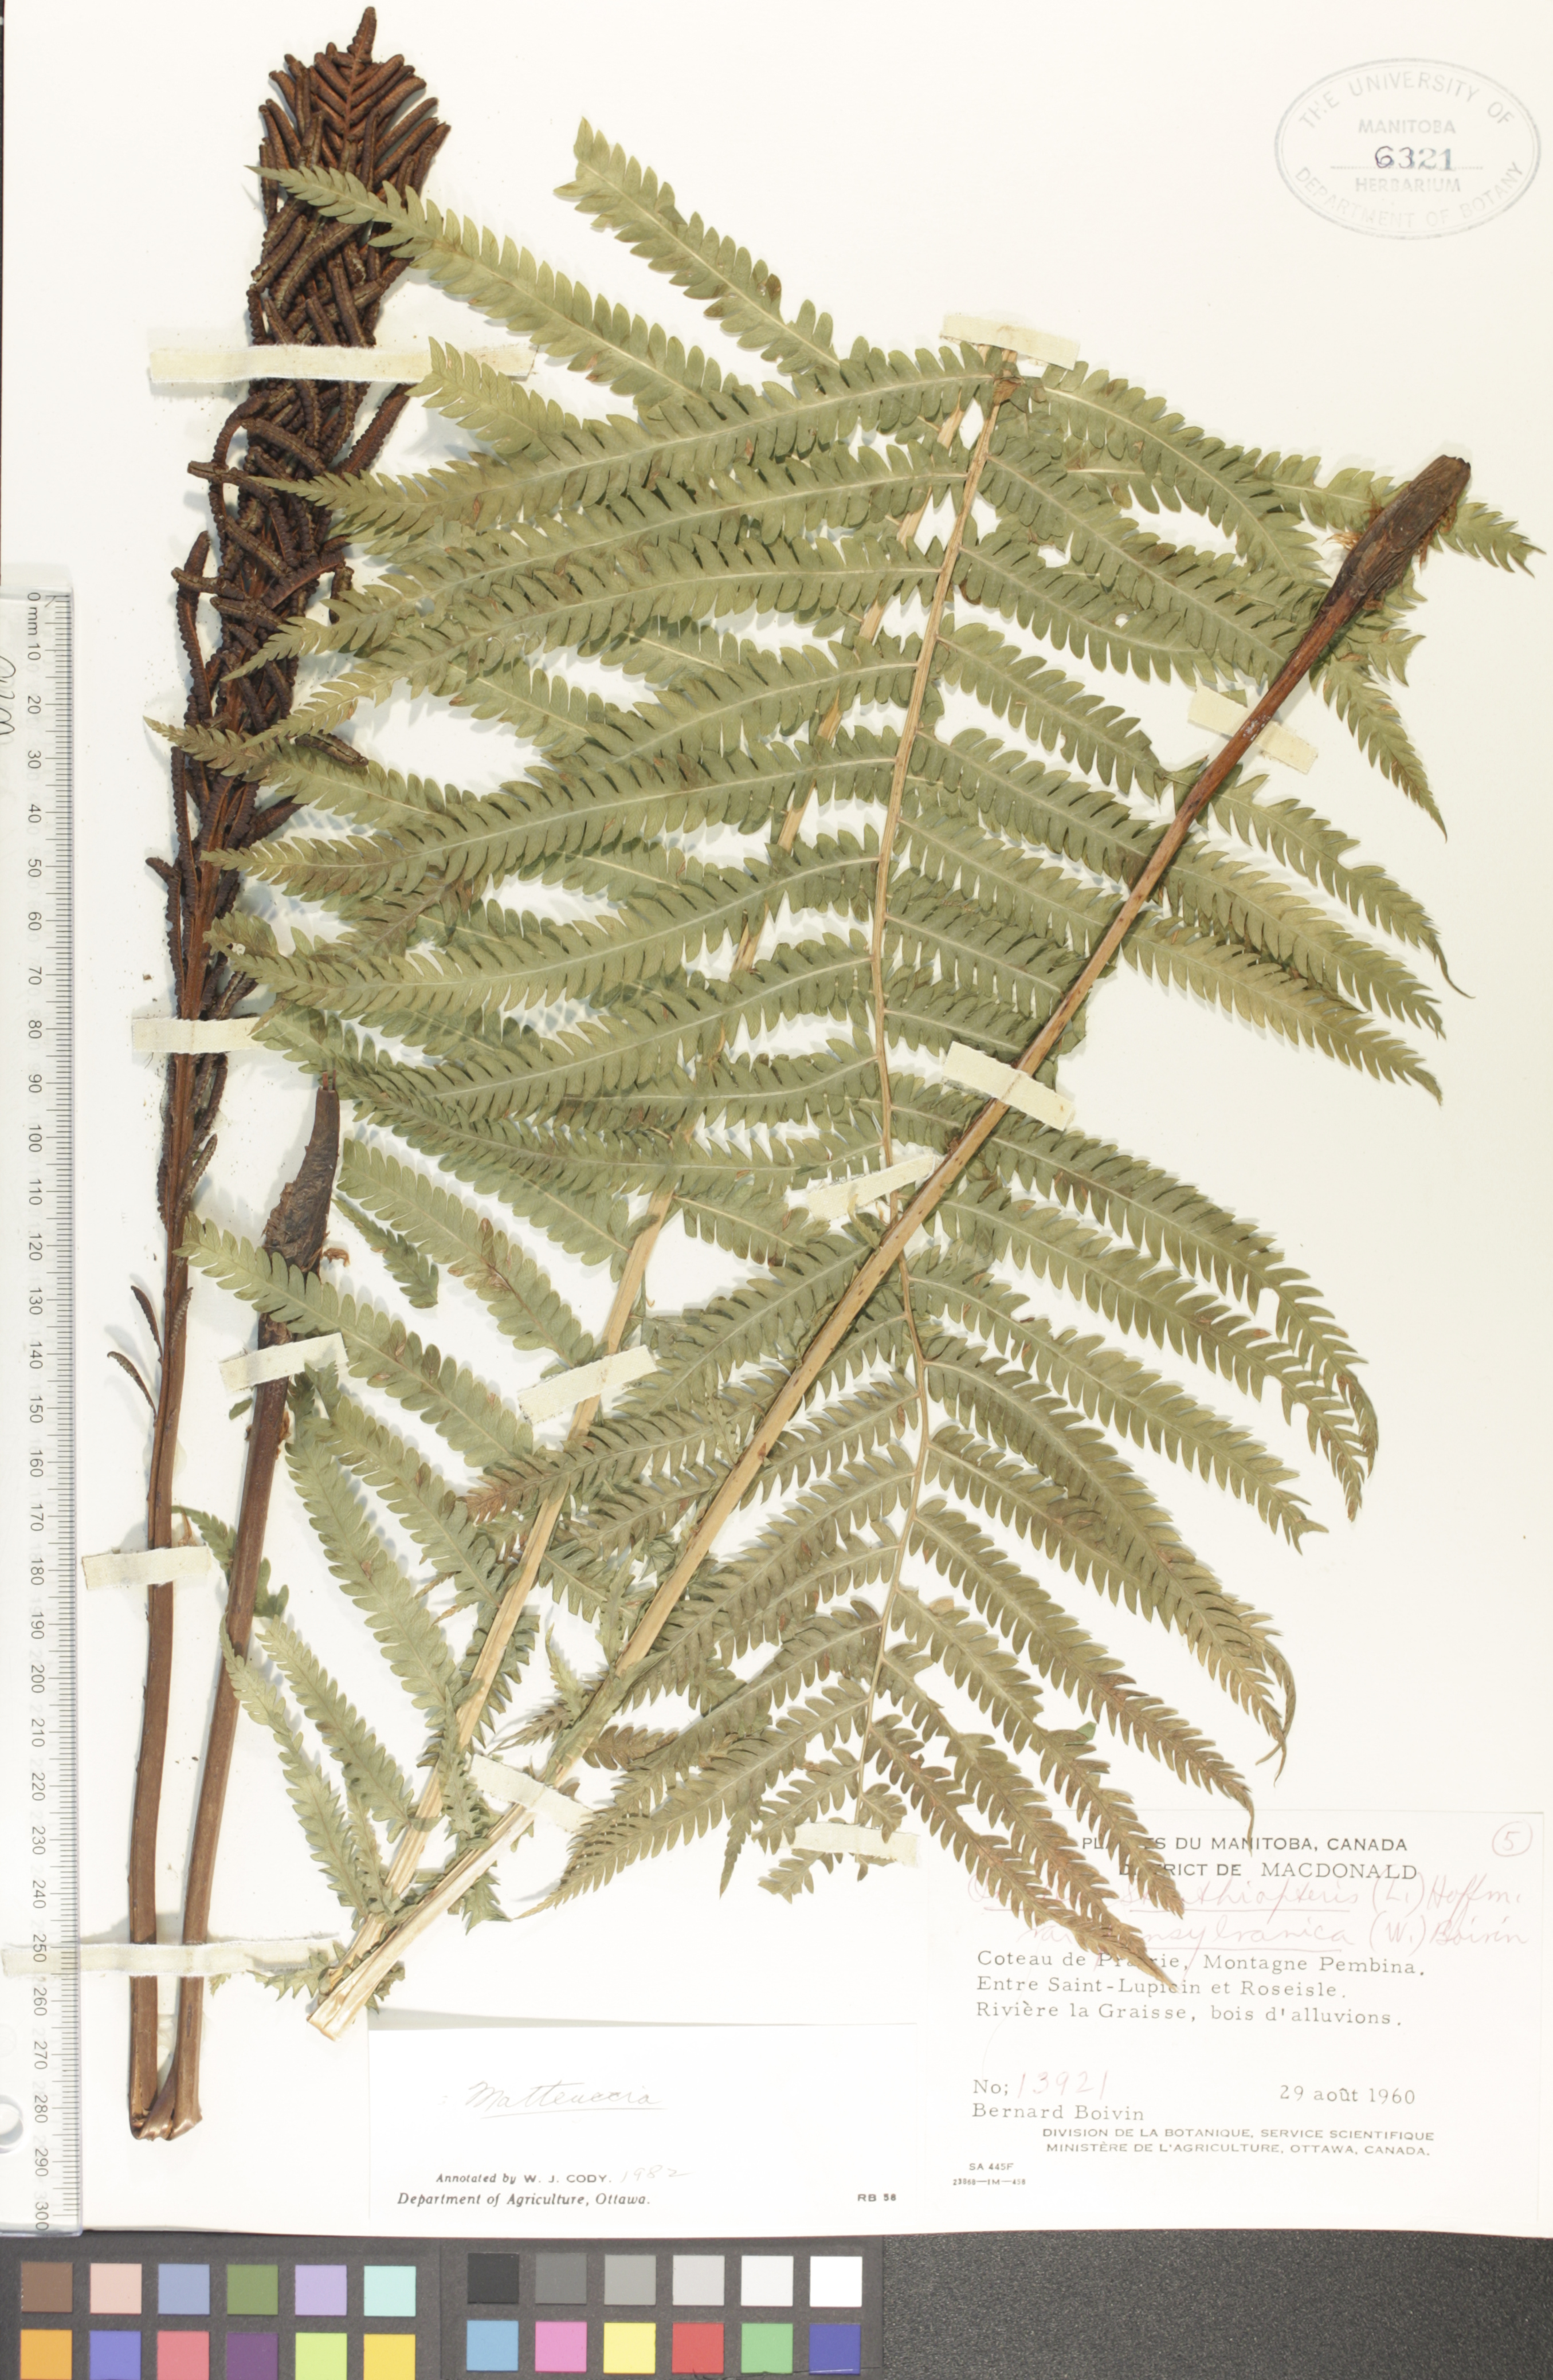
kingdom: Plantae
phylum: Tracheophyta
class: Polypodiopsida
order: Polypodiales
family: Onocleaceae
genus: Matteuccia
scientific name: Matteuccia pensylvanica
